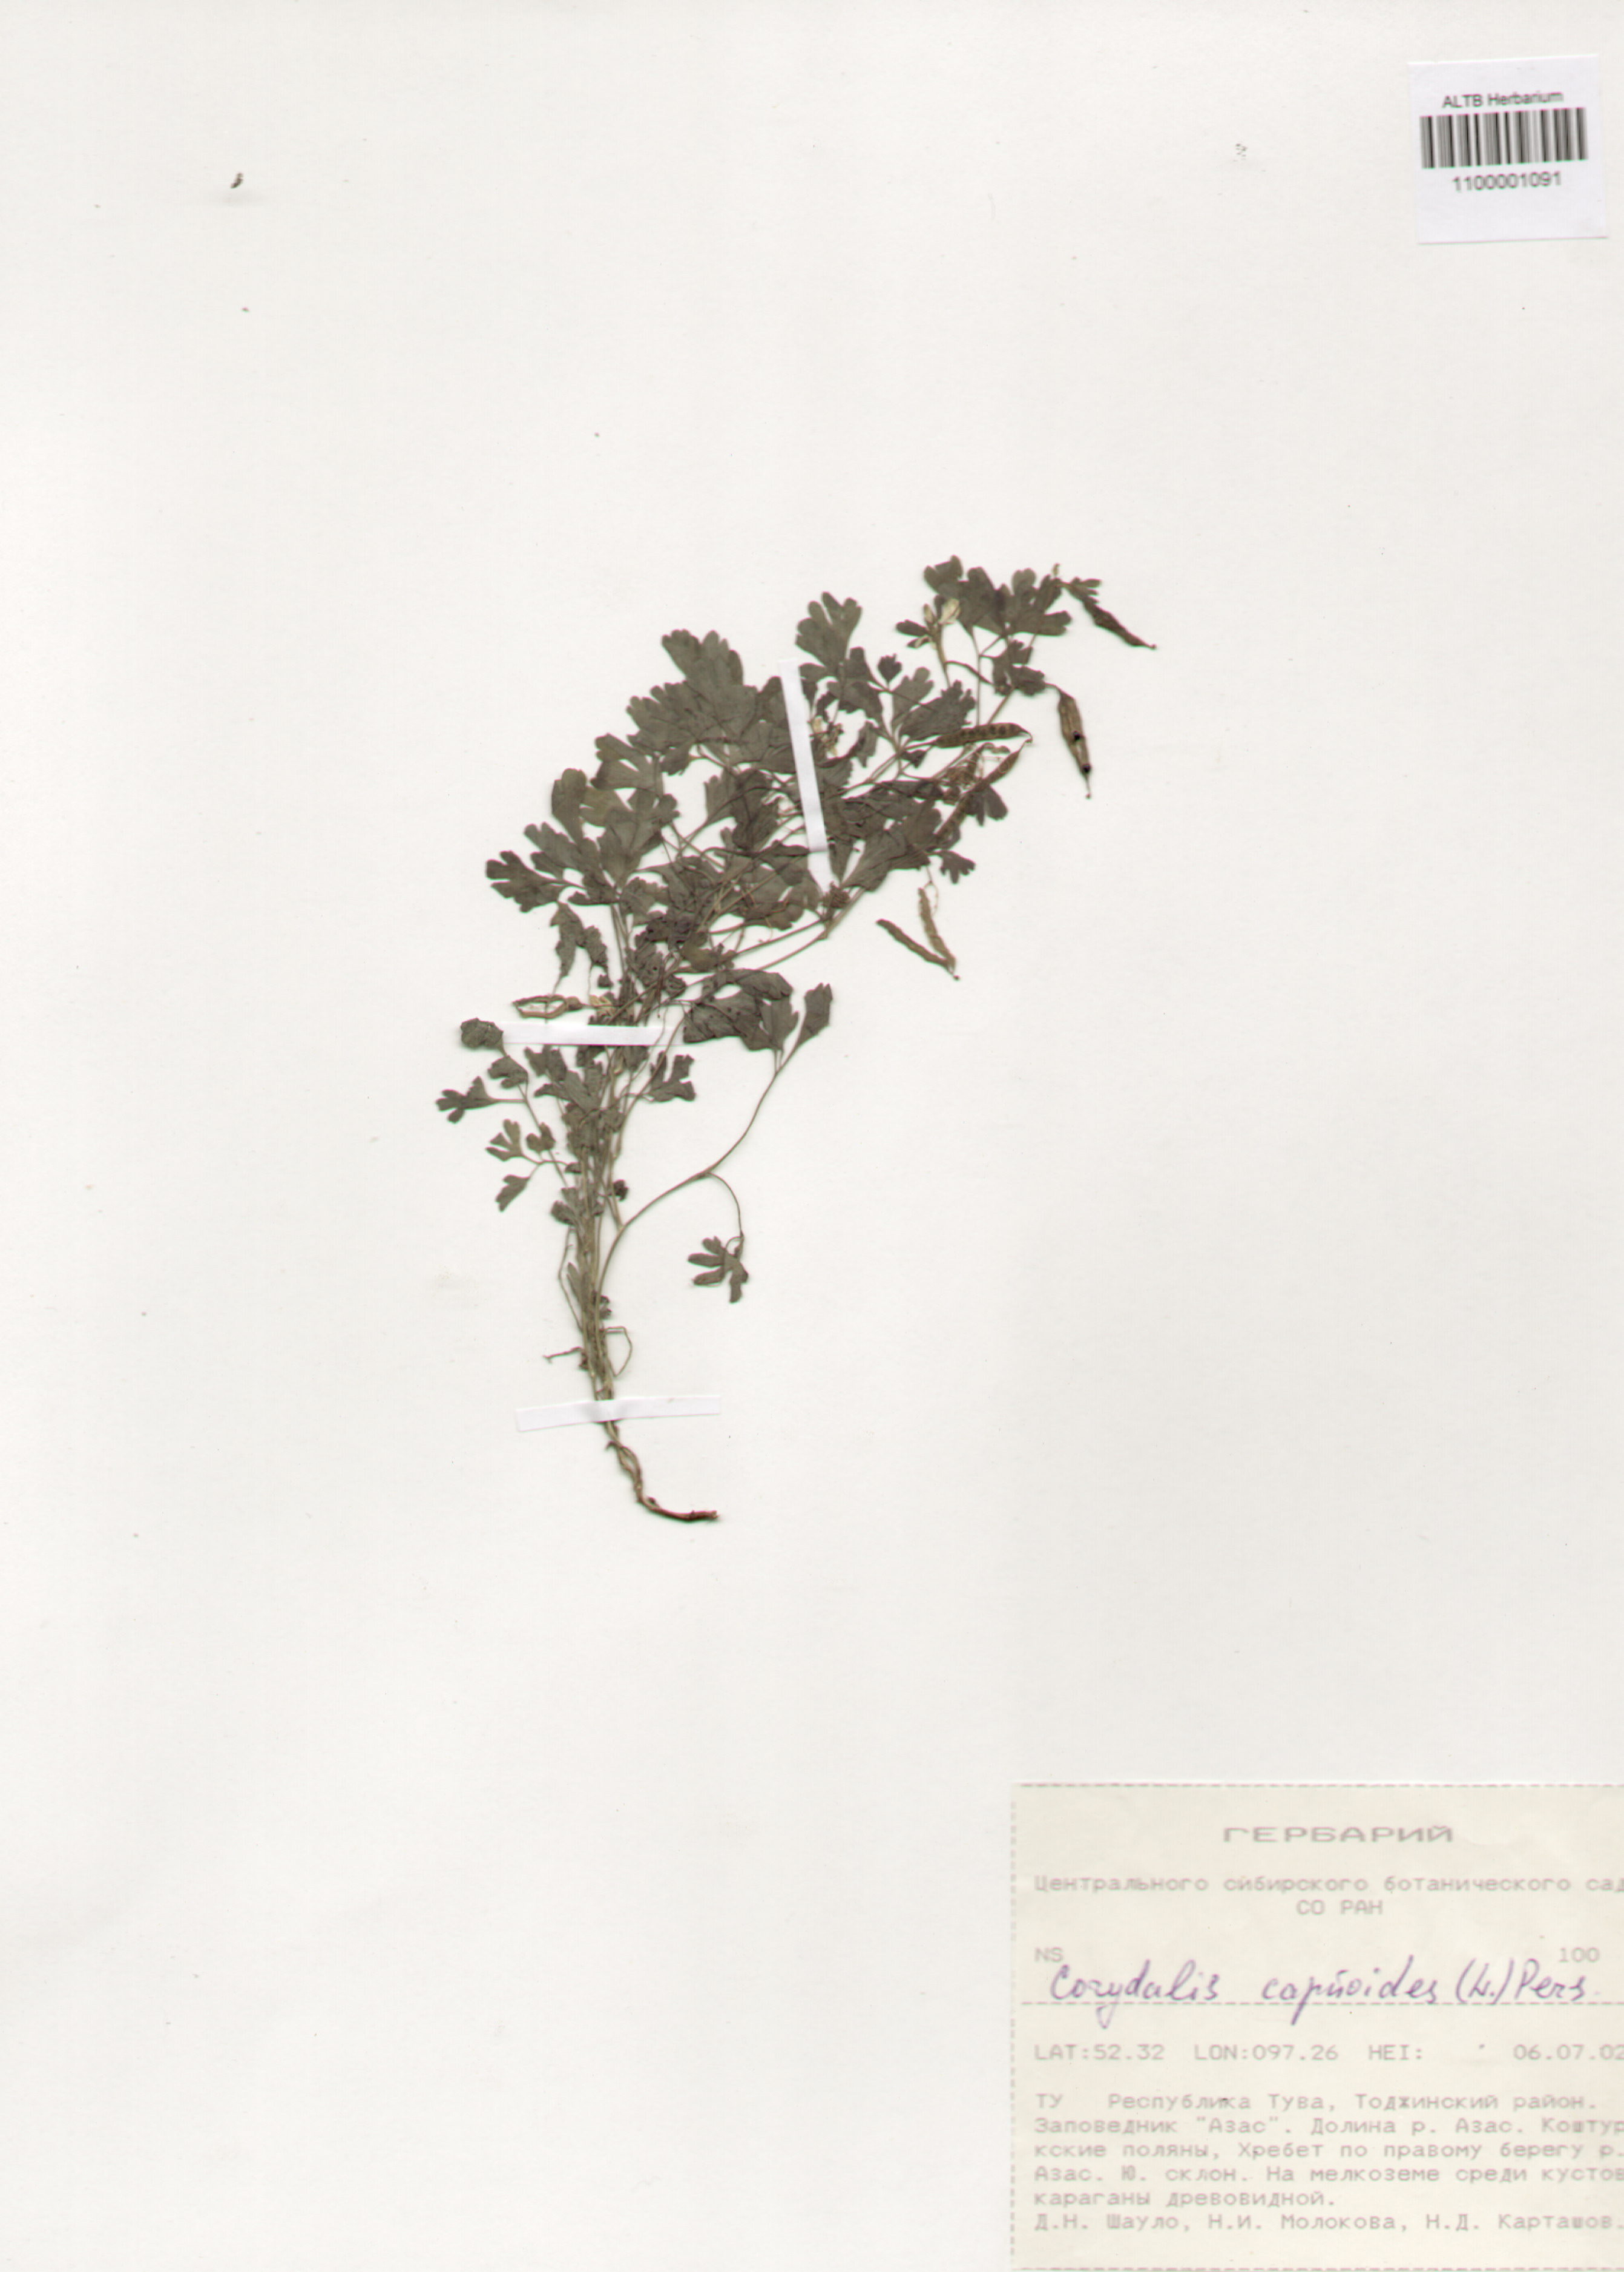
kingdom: Plantae
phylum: Tracheophyta
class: Magnoliopsida
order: Ranunculales
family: Papaveraceae
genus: Corydalis
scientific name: Corydalis capnoides
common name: Beaked corydalis
